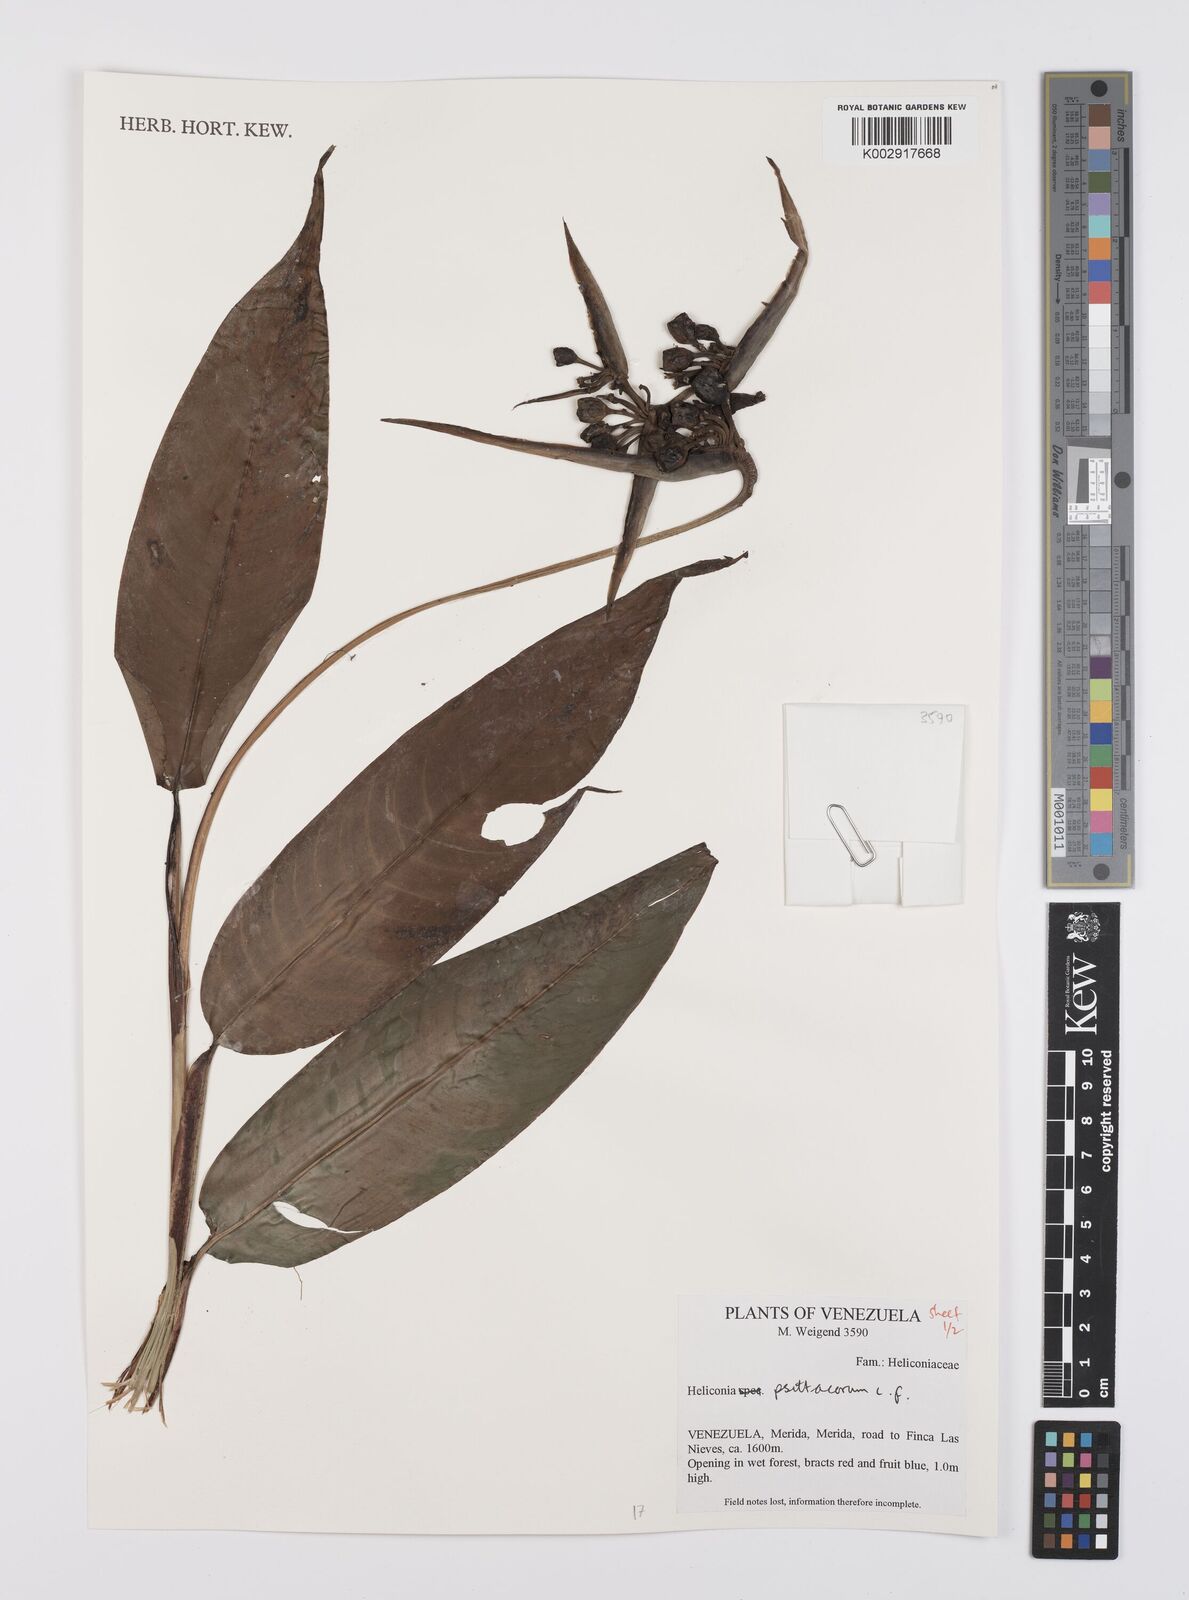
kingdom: Plantae
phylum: Tracheophyta
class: Liliopsida
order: Zingiberales
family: Heliconiaceae
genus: Heliconia
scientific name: Heliconia psittacorum
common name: Parrot's-flower
